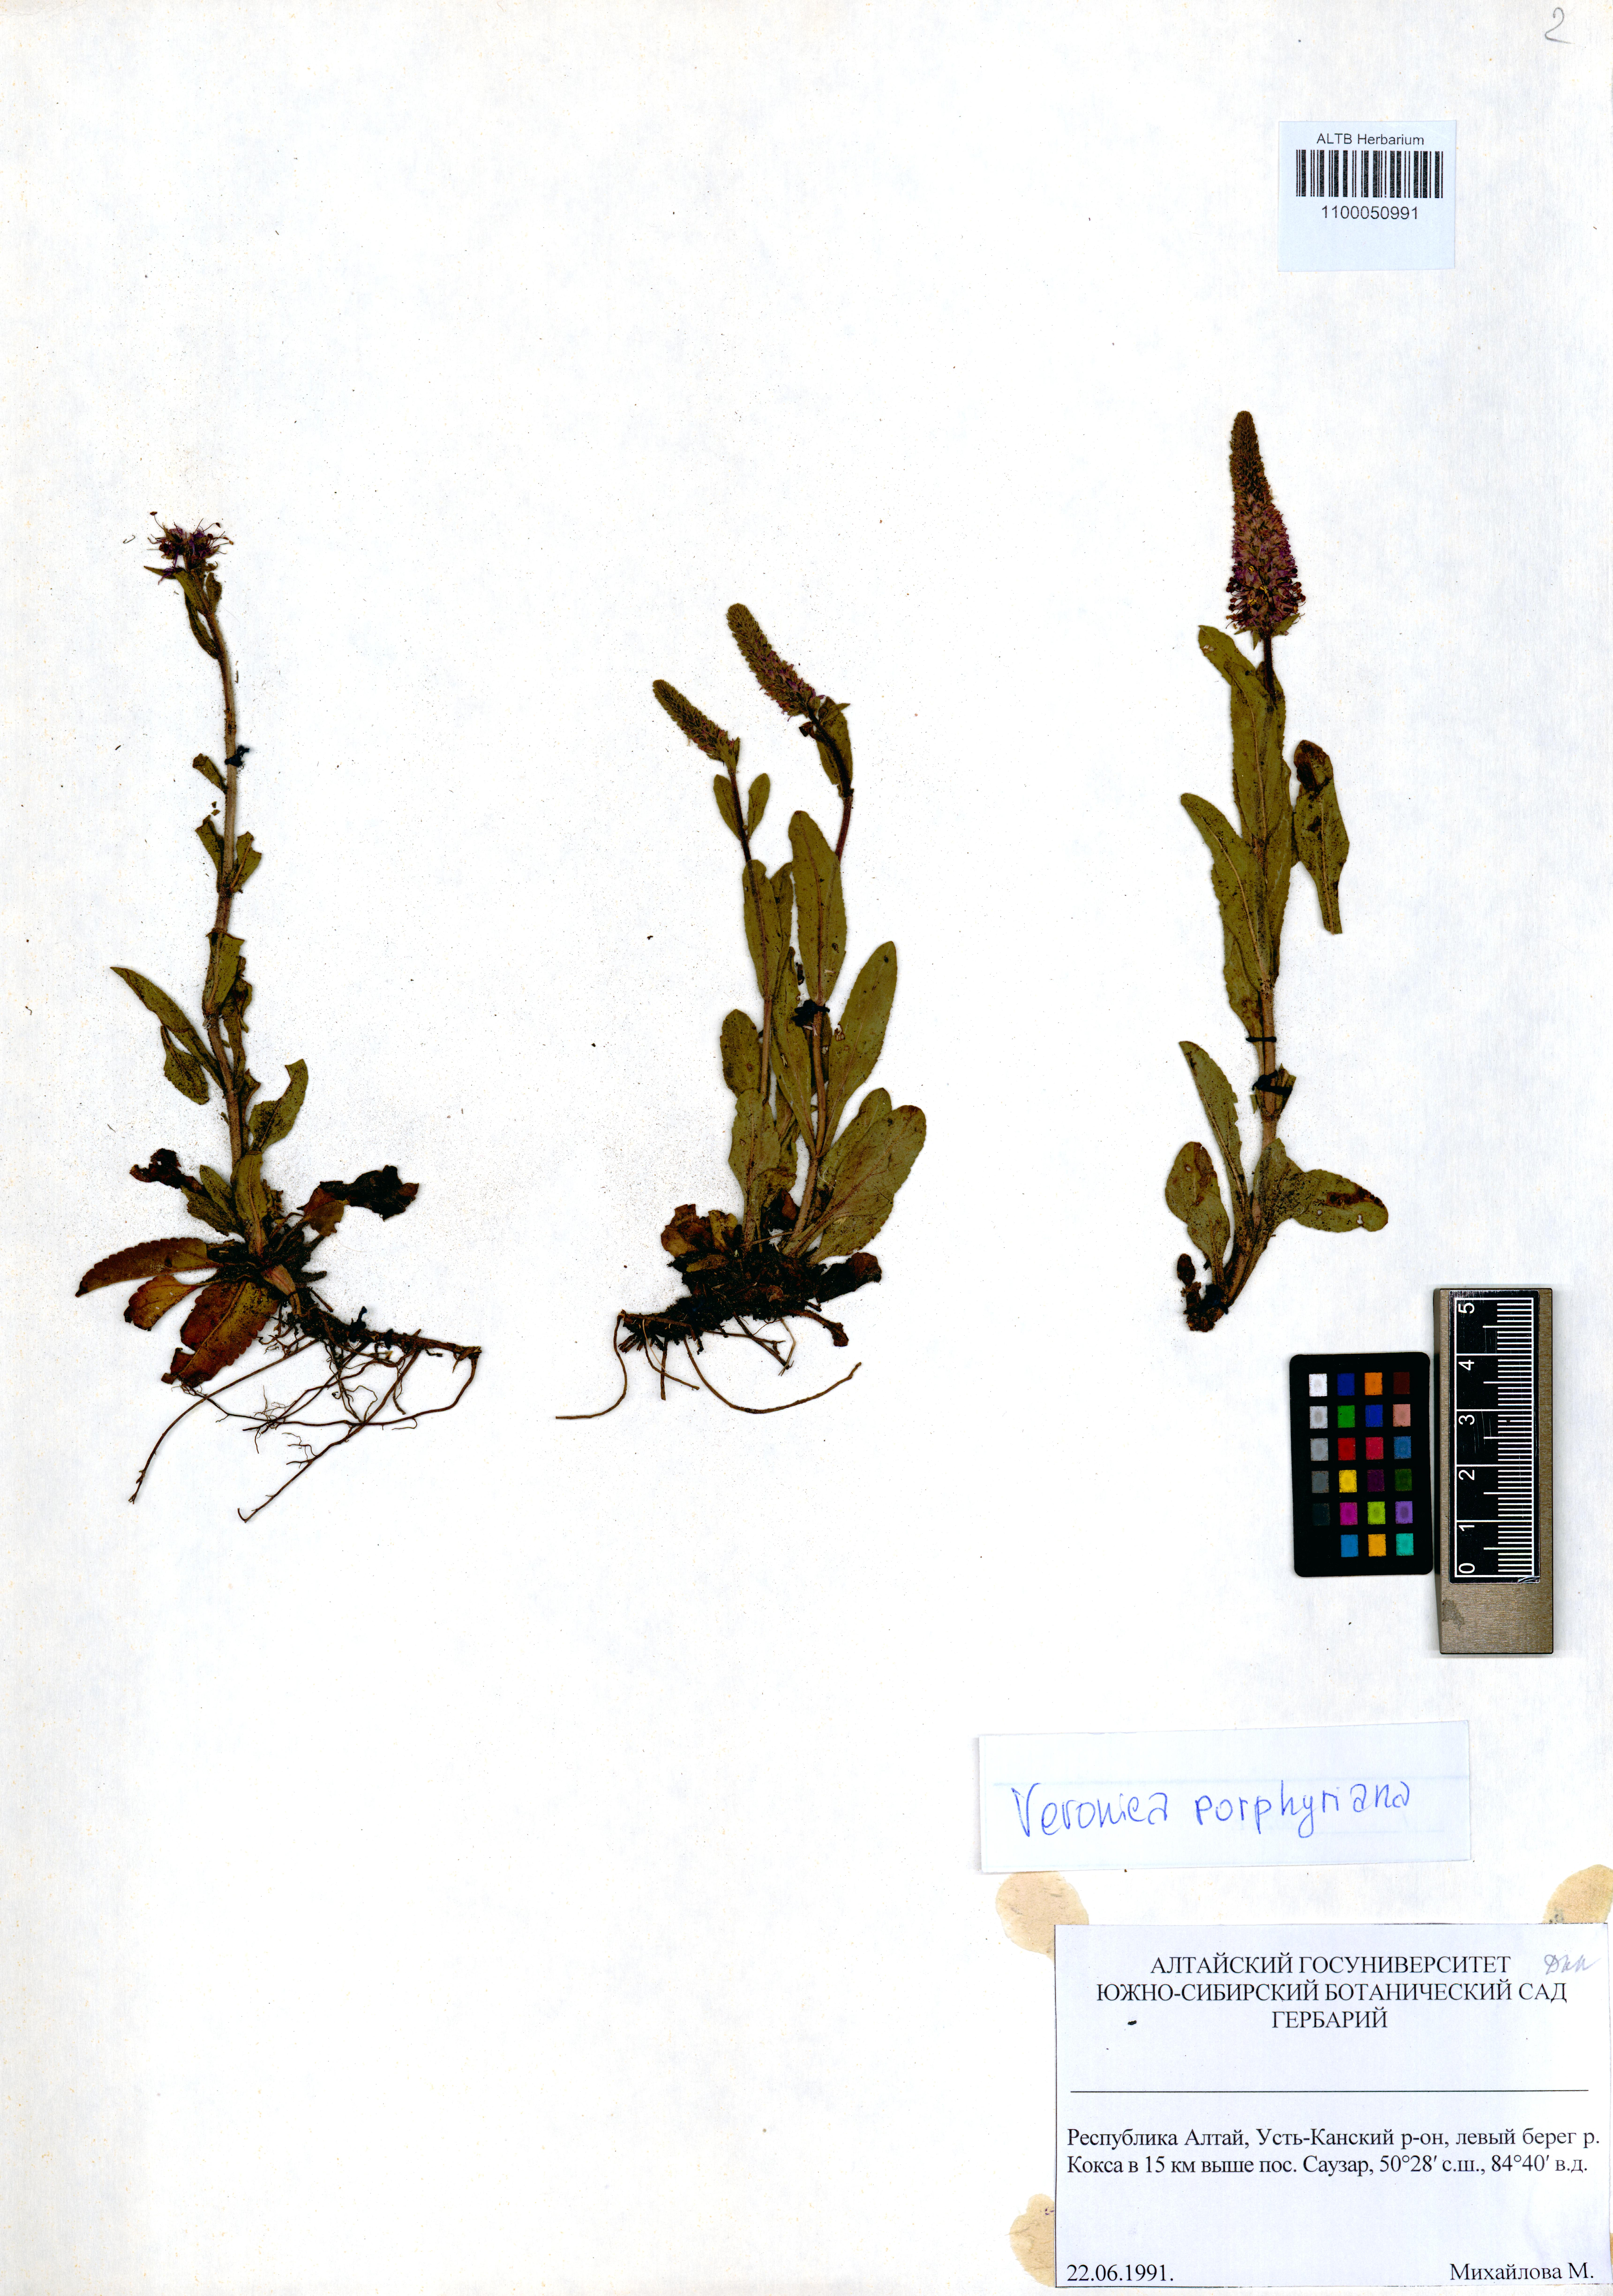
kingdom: Plantae
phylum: Tracheophyta
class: Magnoliopsida
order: Lamiales
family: Plantaginaceae
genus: Veronica
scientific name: Veronica porphyriana
